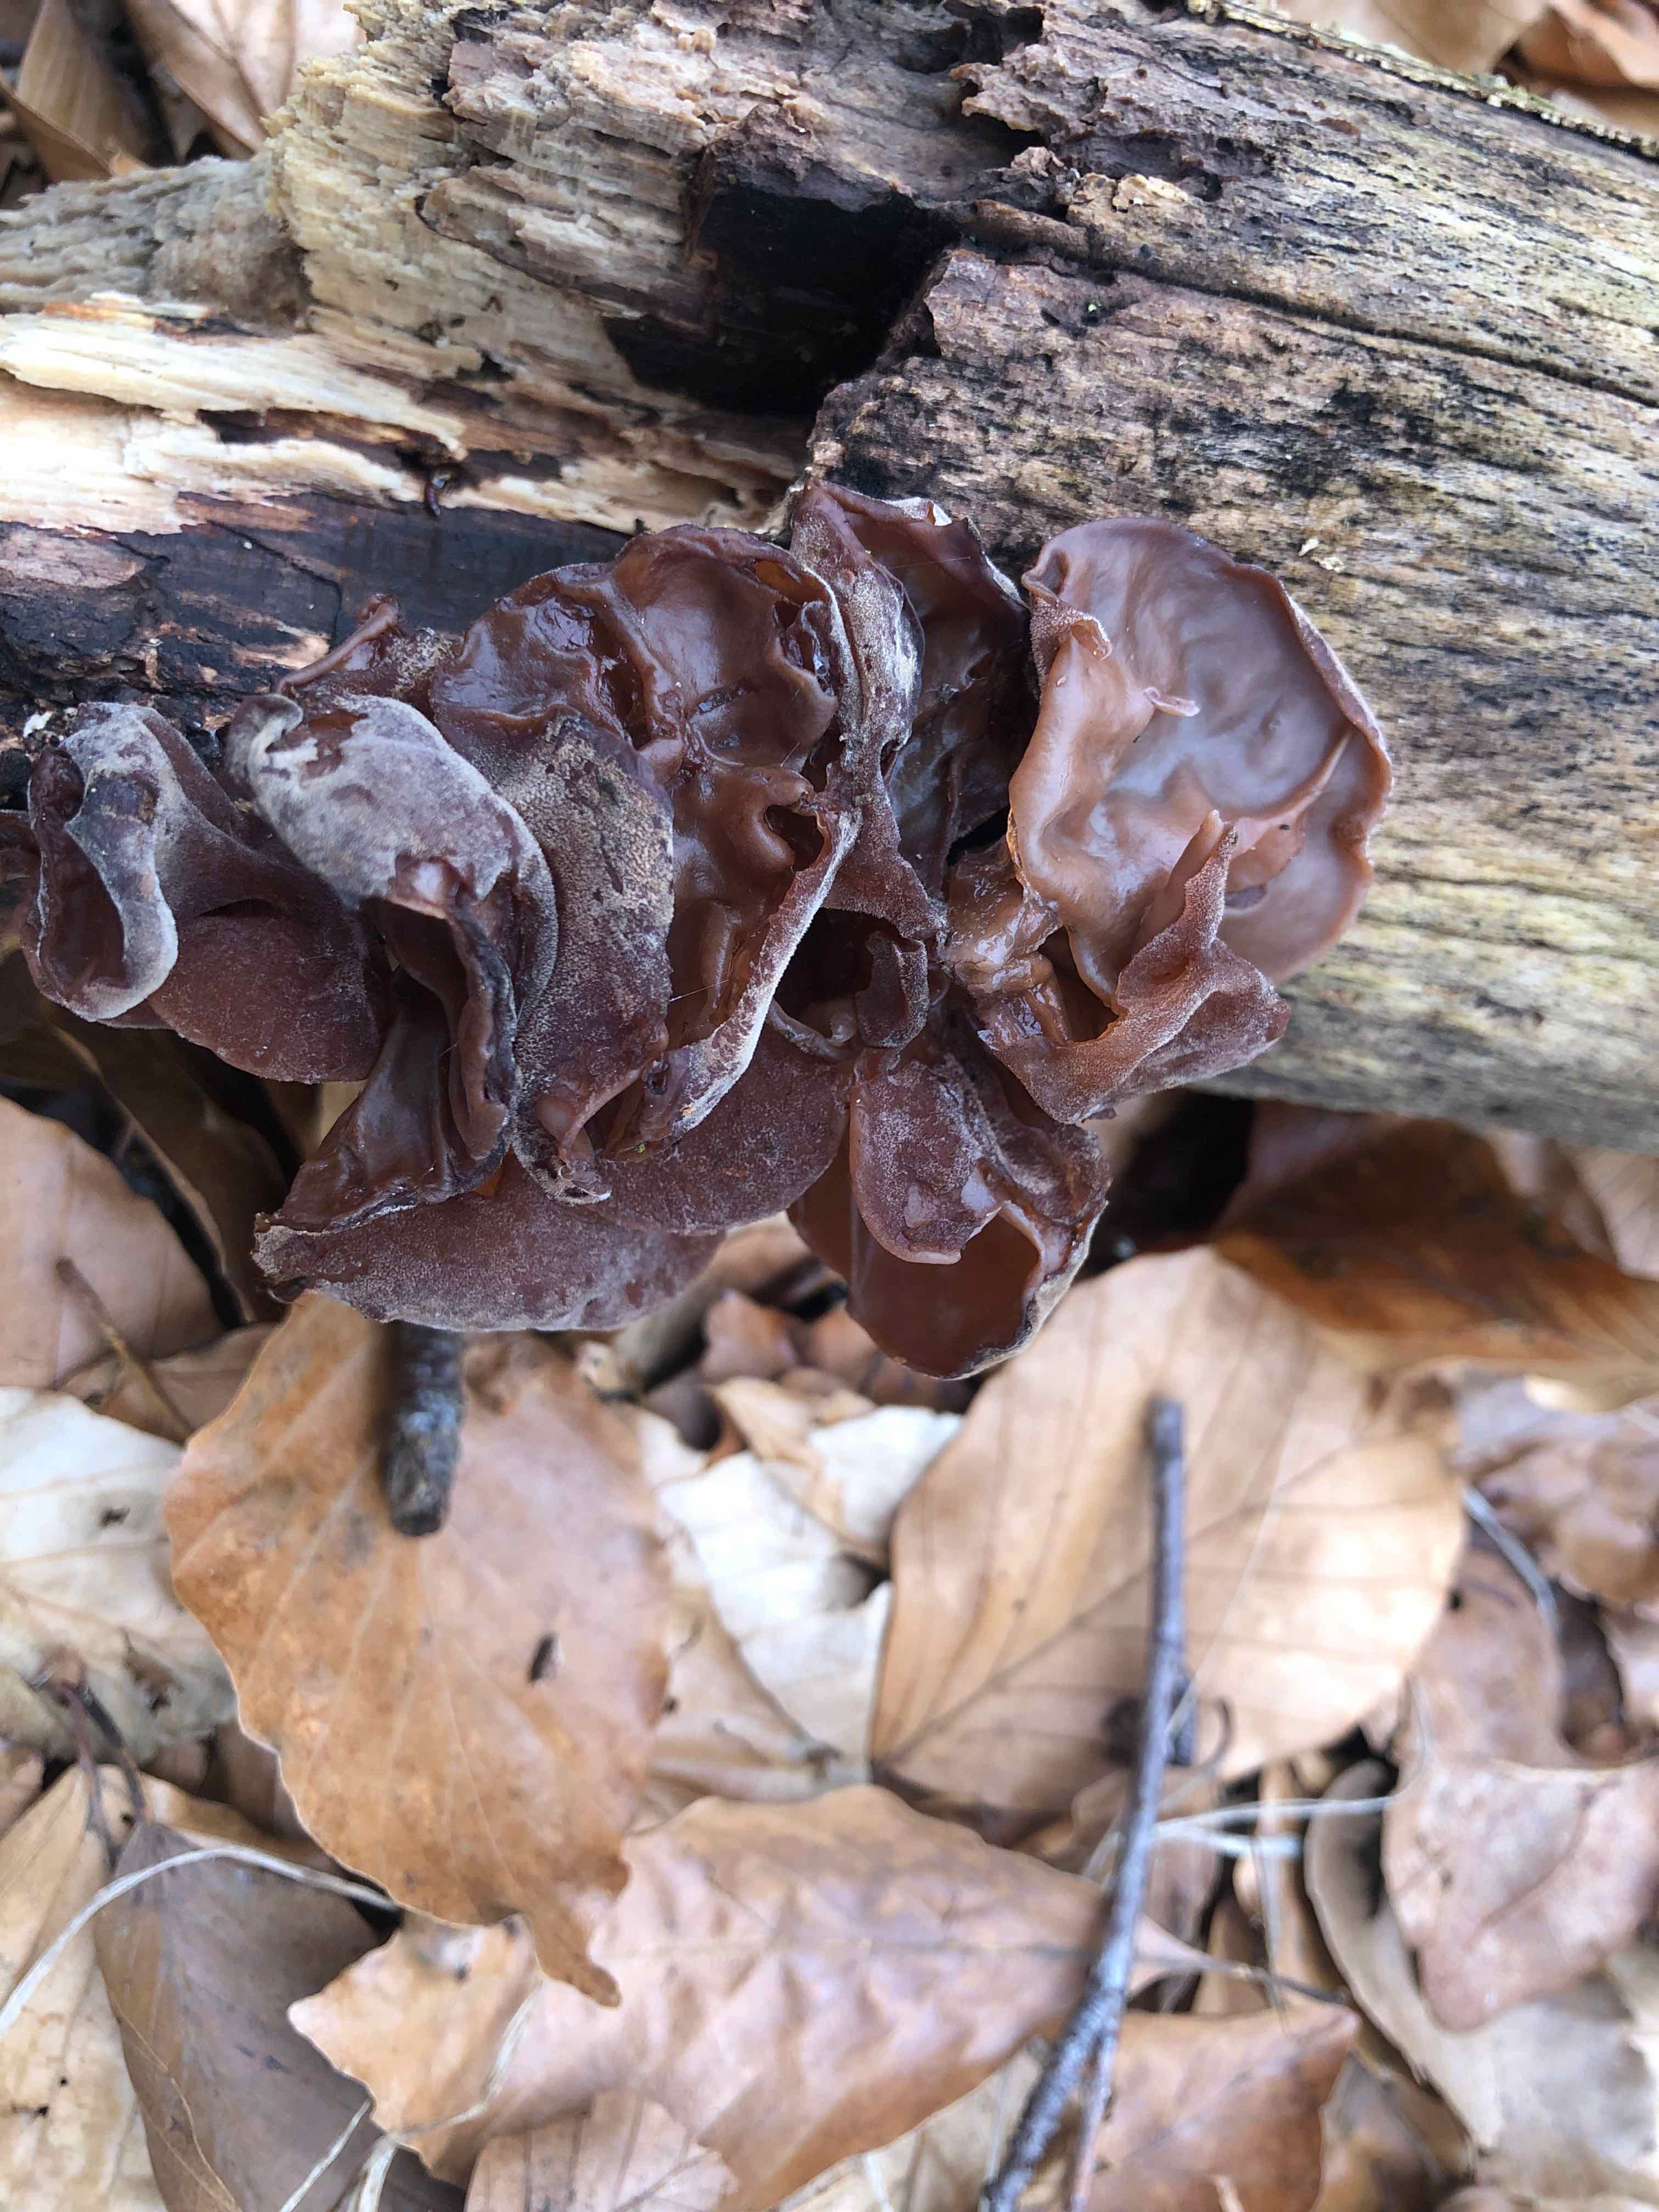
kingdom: Fungi
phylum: Basidiomycota
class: Agaricomycetes
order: Auriculariales
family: Auriculariaceae
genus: Auricularia
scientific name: Auricularia auricula-judae
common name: almindelig judasøre
